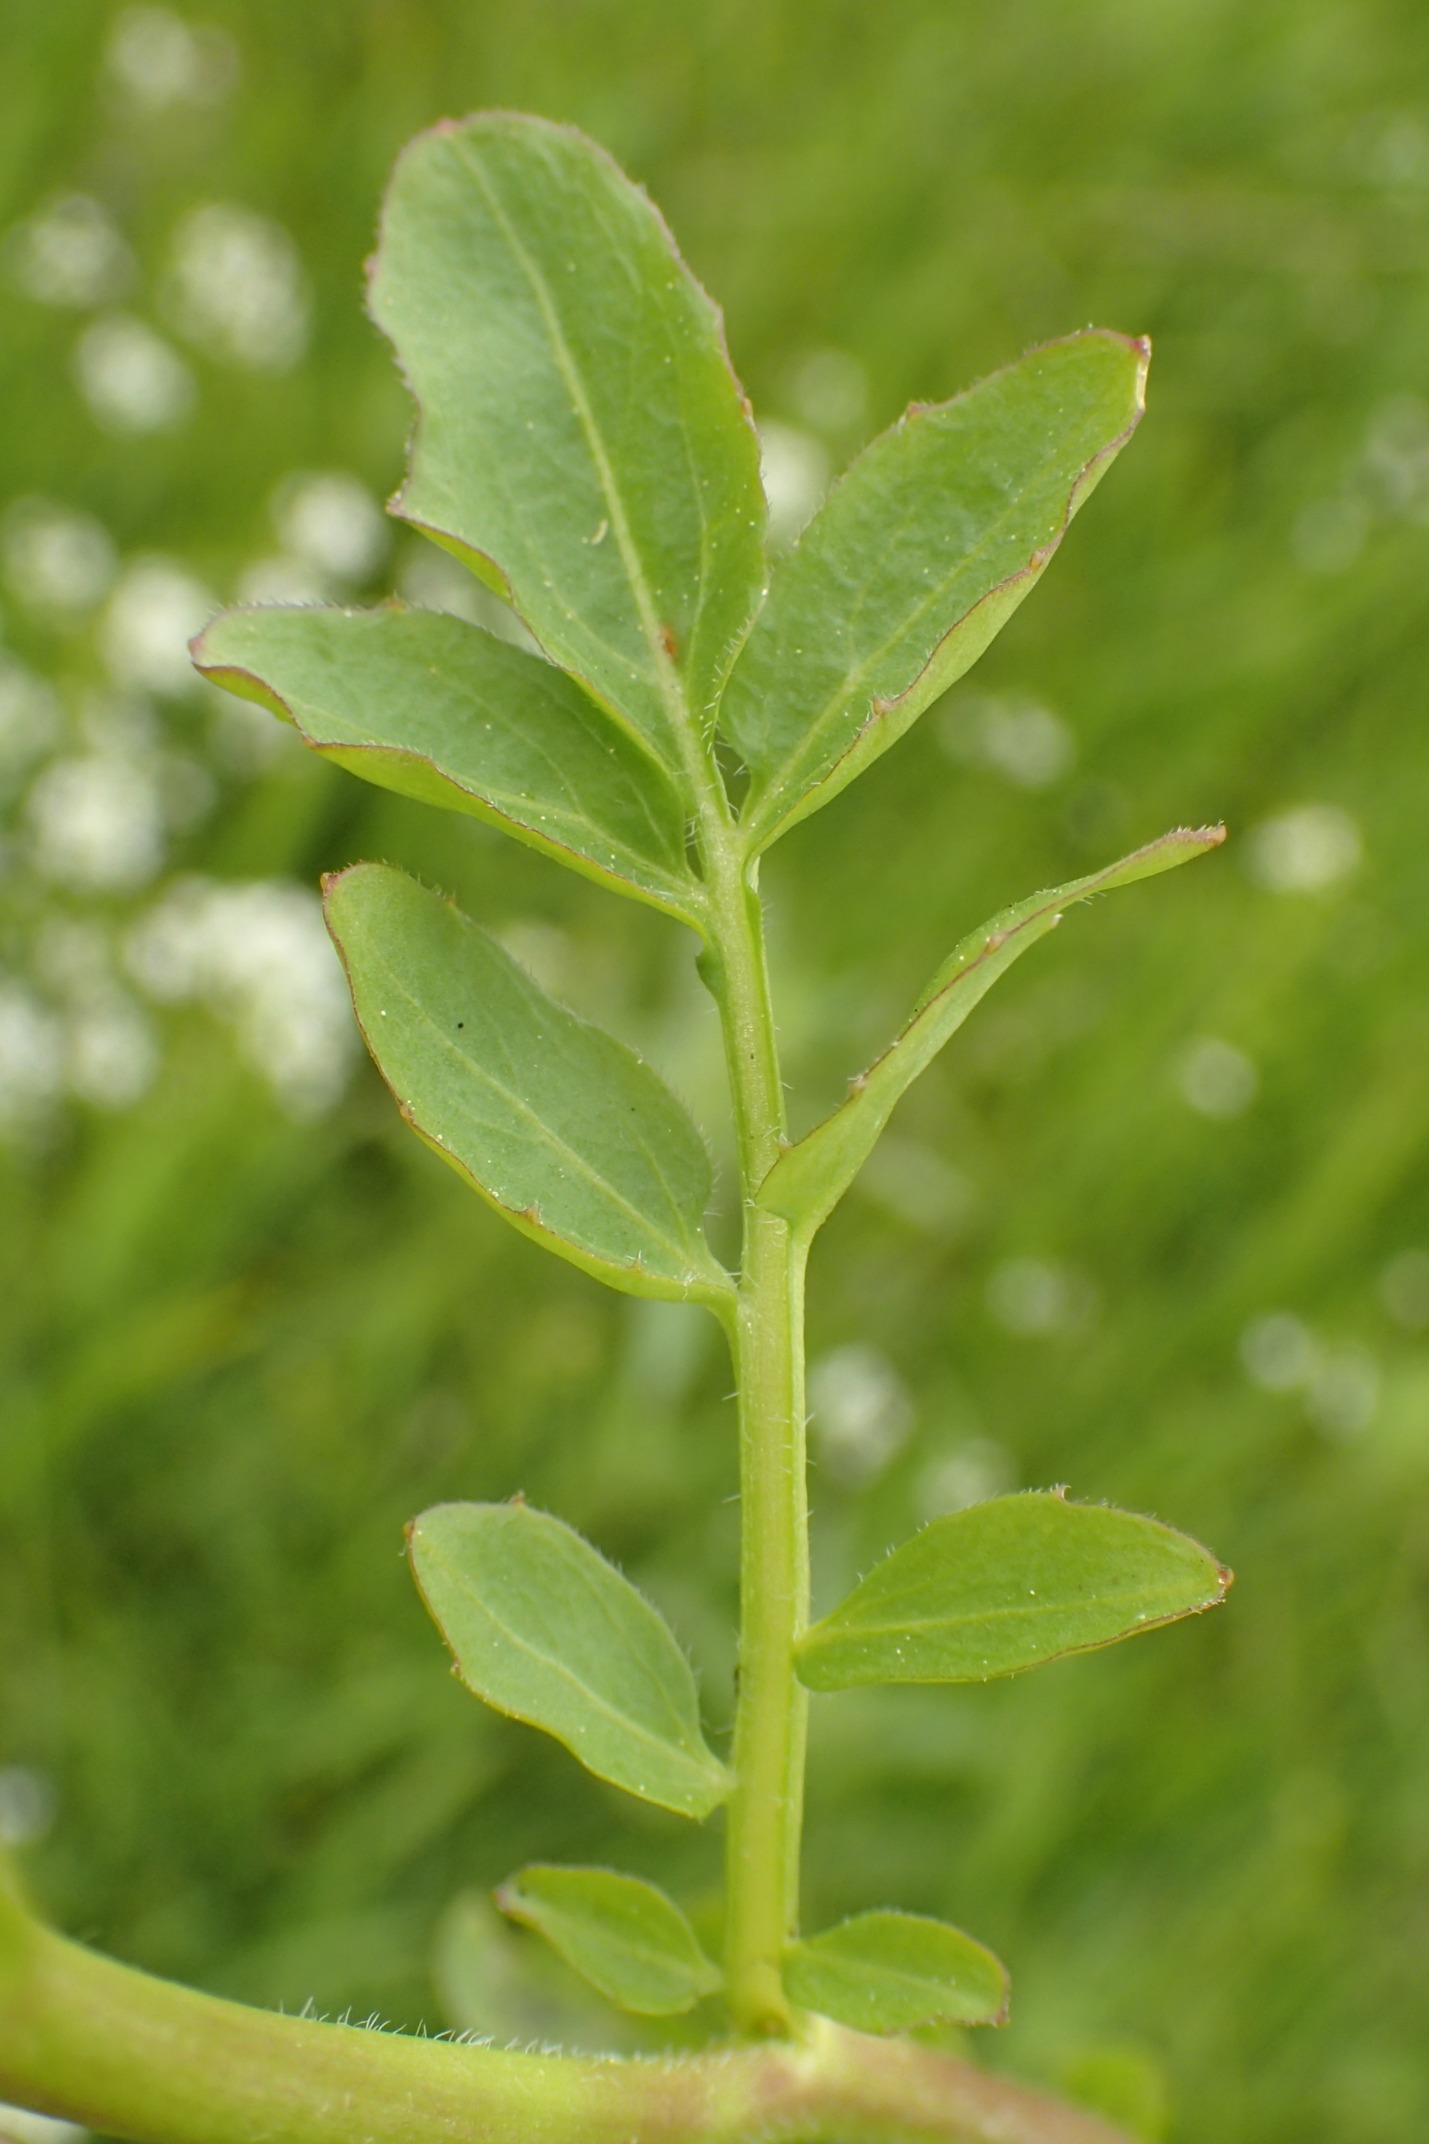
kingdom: Plantae
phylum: Tracheophyta
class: Magnoliopsida
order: Brassicales
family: Brassicaceae
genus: Cardamine
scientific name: Cardamine amara
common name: Vandkarse
